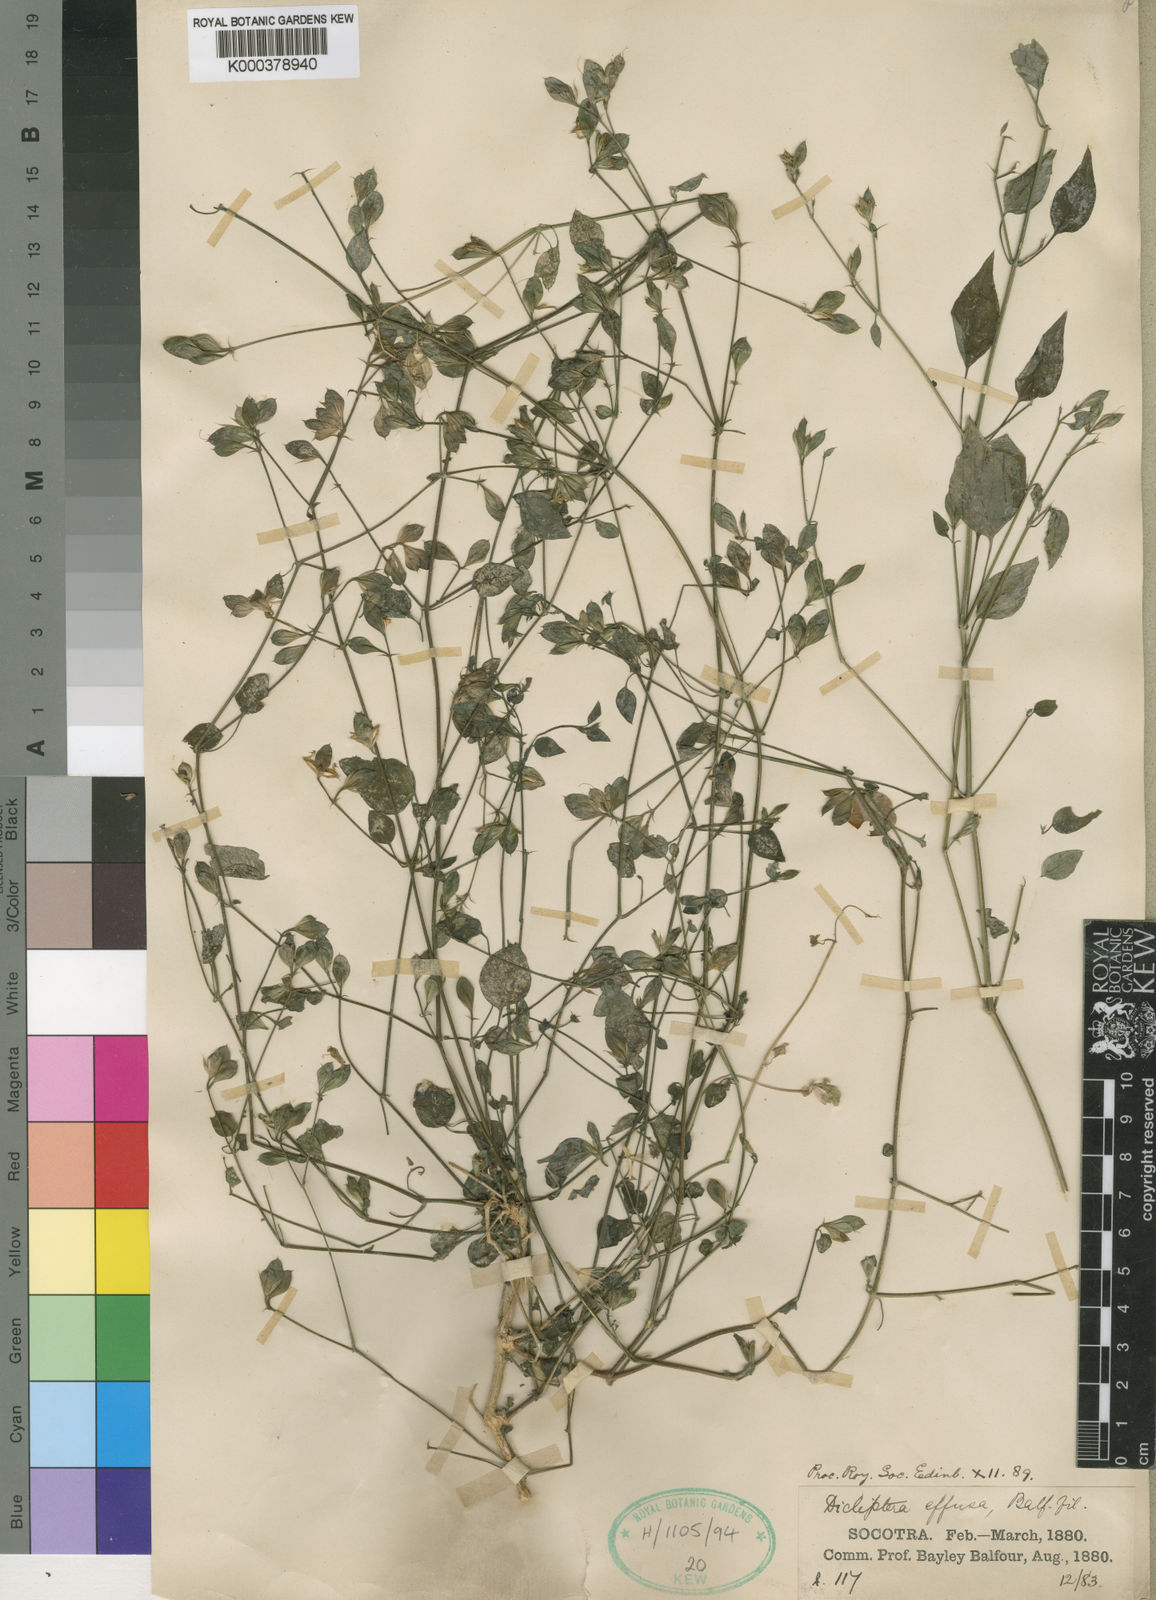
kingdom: Plantae
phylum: Tracheophyta
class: Magnoliopsida
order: Lamiales
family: Acanthaceae
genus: Dicliptera
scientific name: Dicliptera effusa
